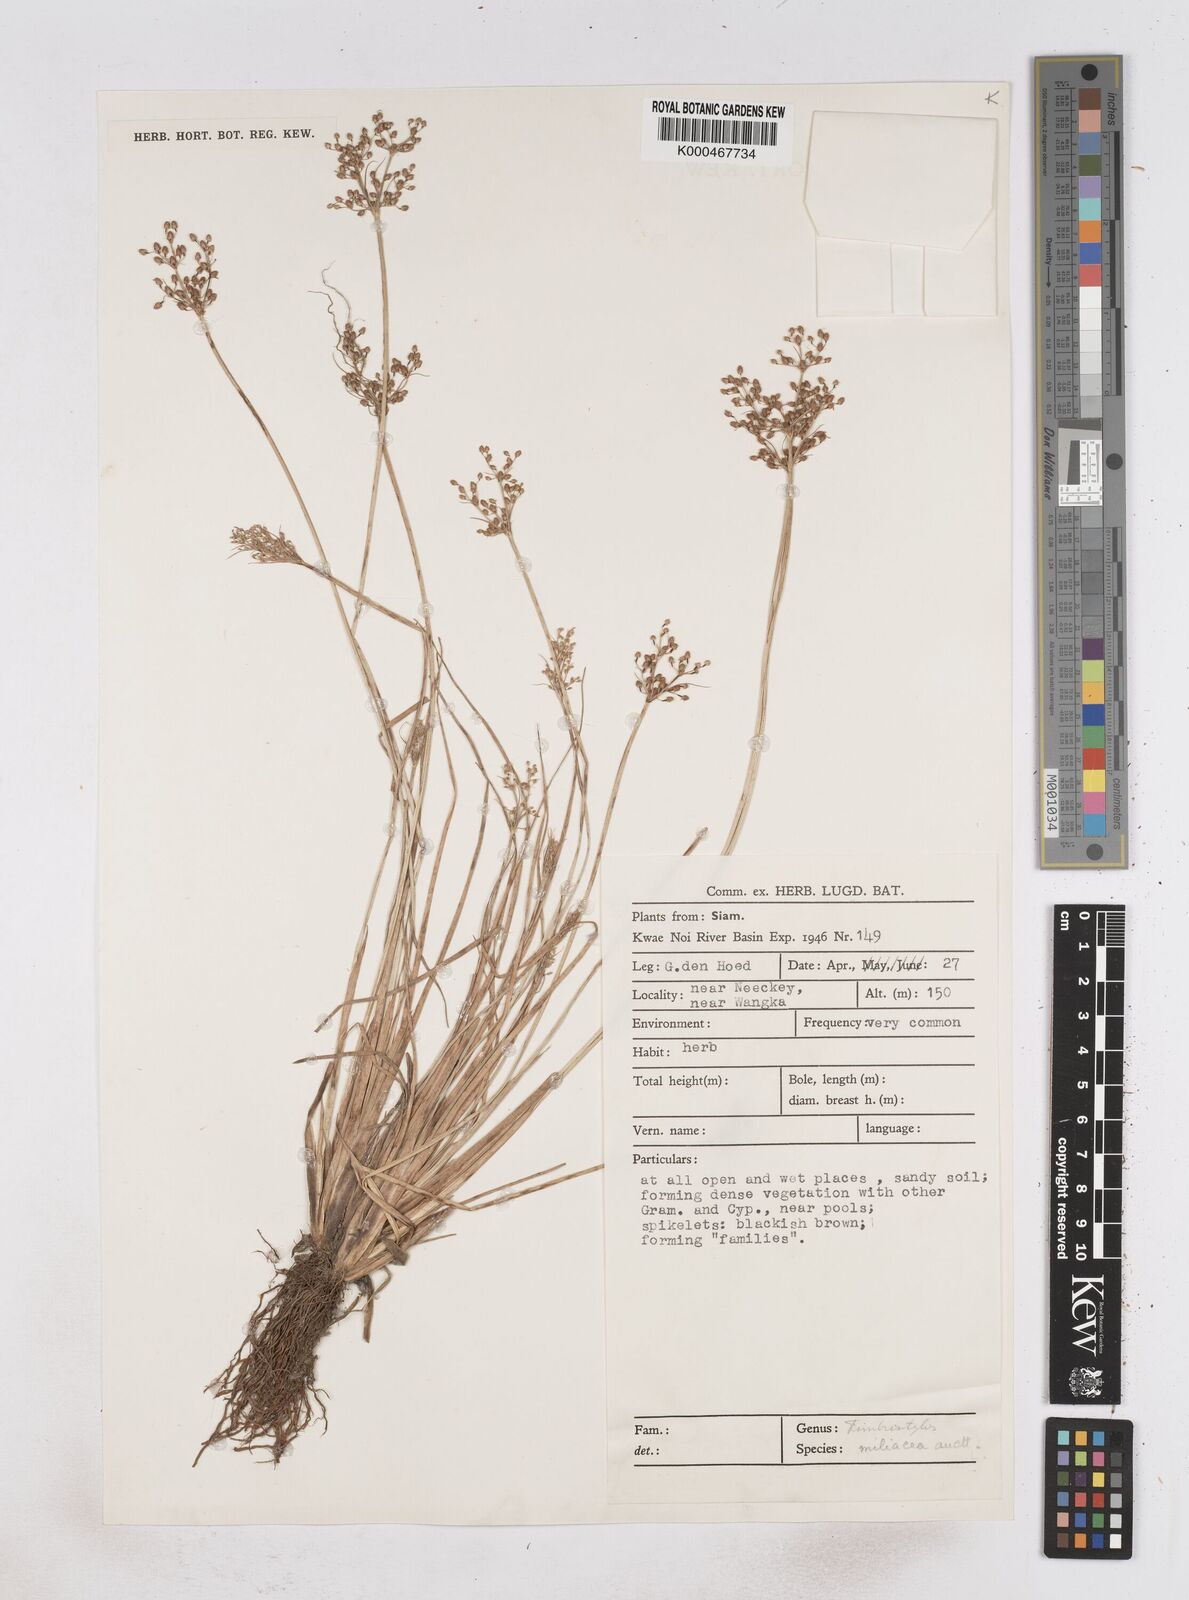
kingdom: Plantae
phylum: Tracheophyta
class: Liliopsida
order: Poales
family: Cyperaceae
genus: Fimbristylis
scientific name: Fimbristylis quinquangularis
